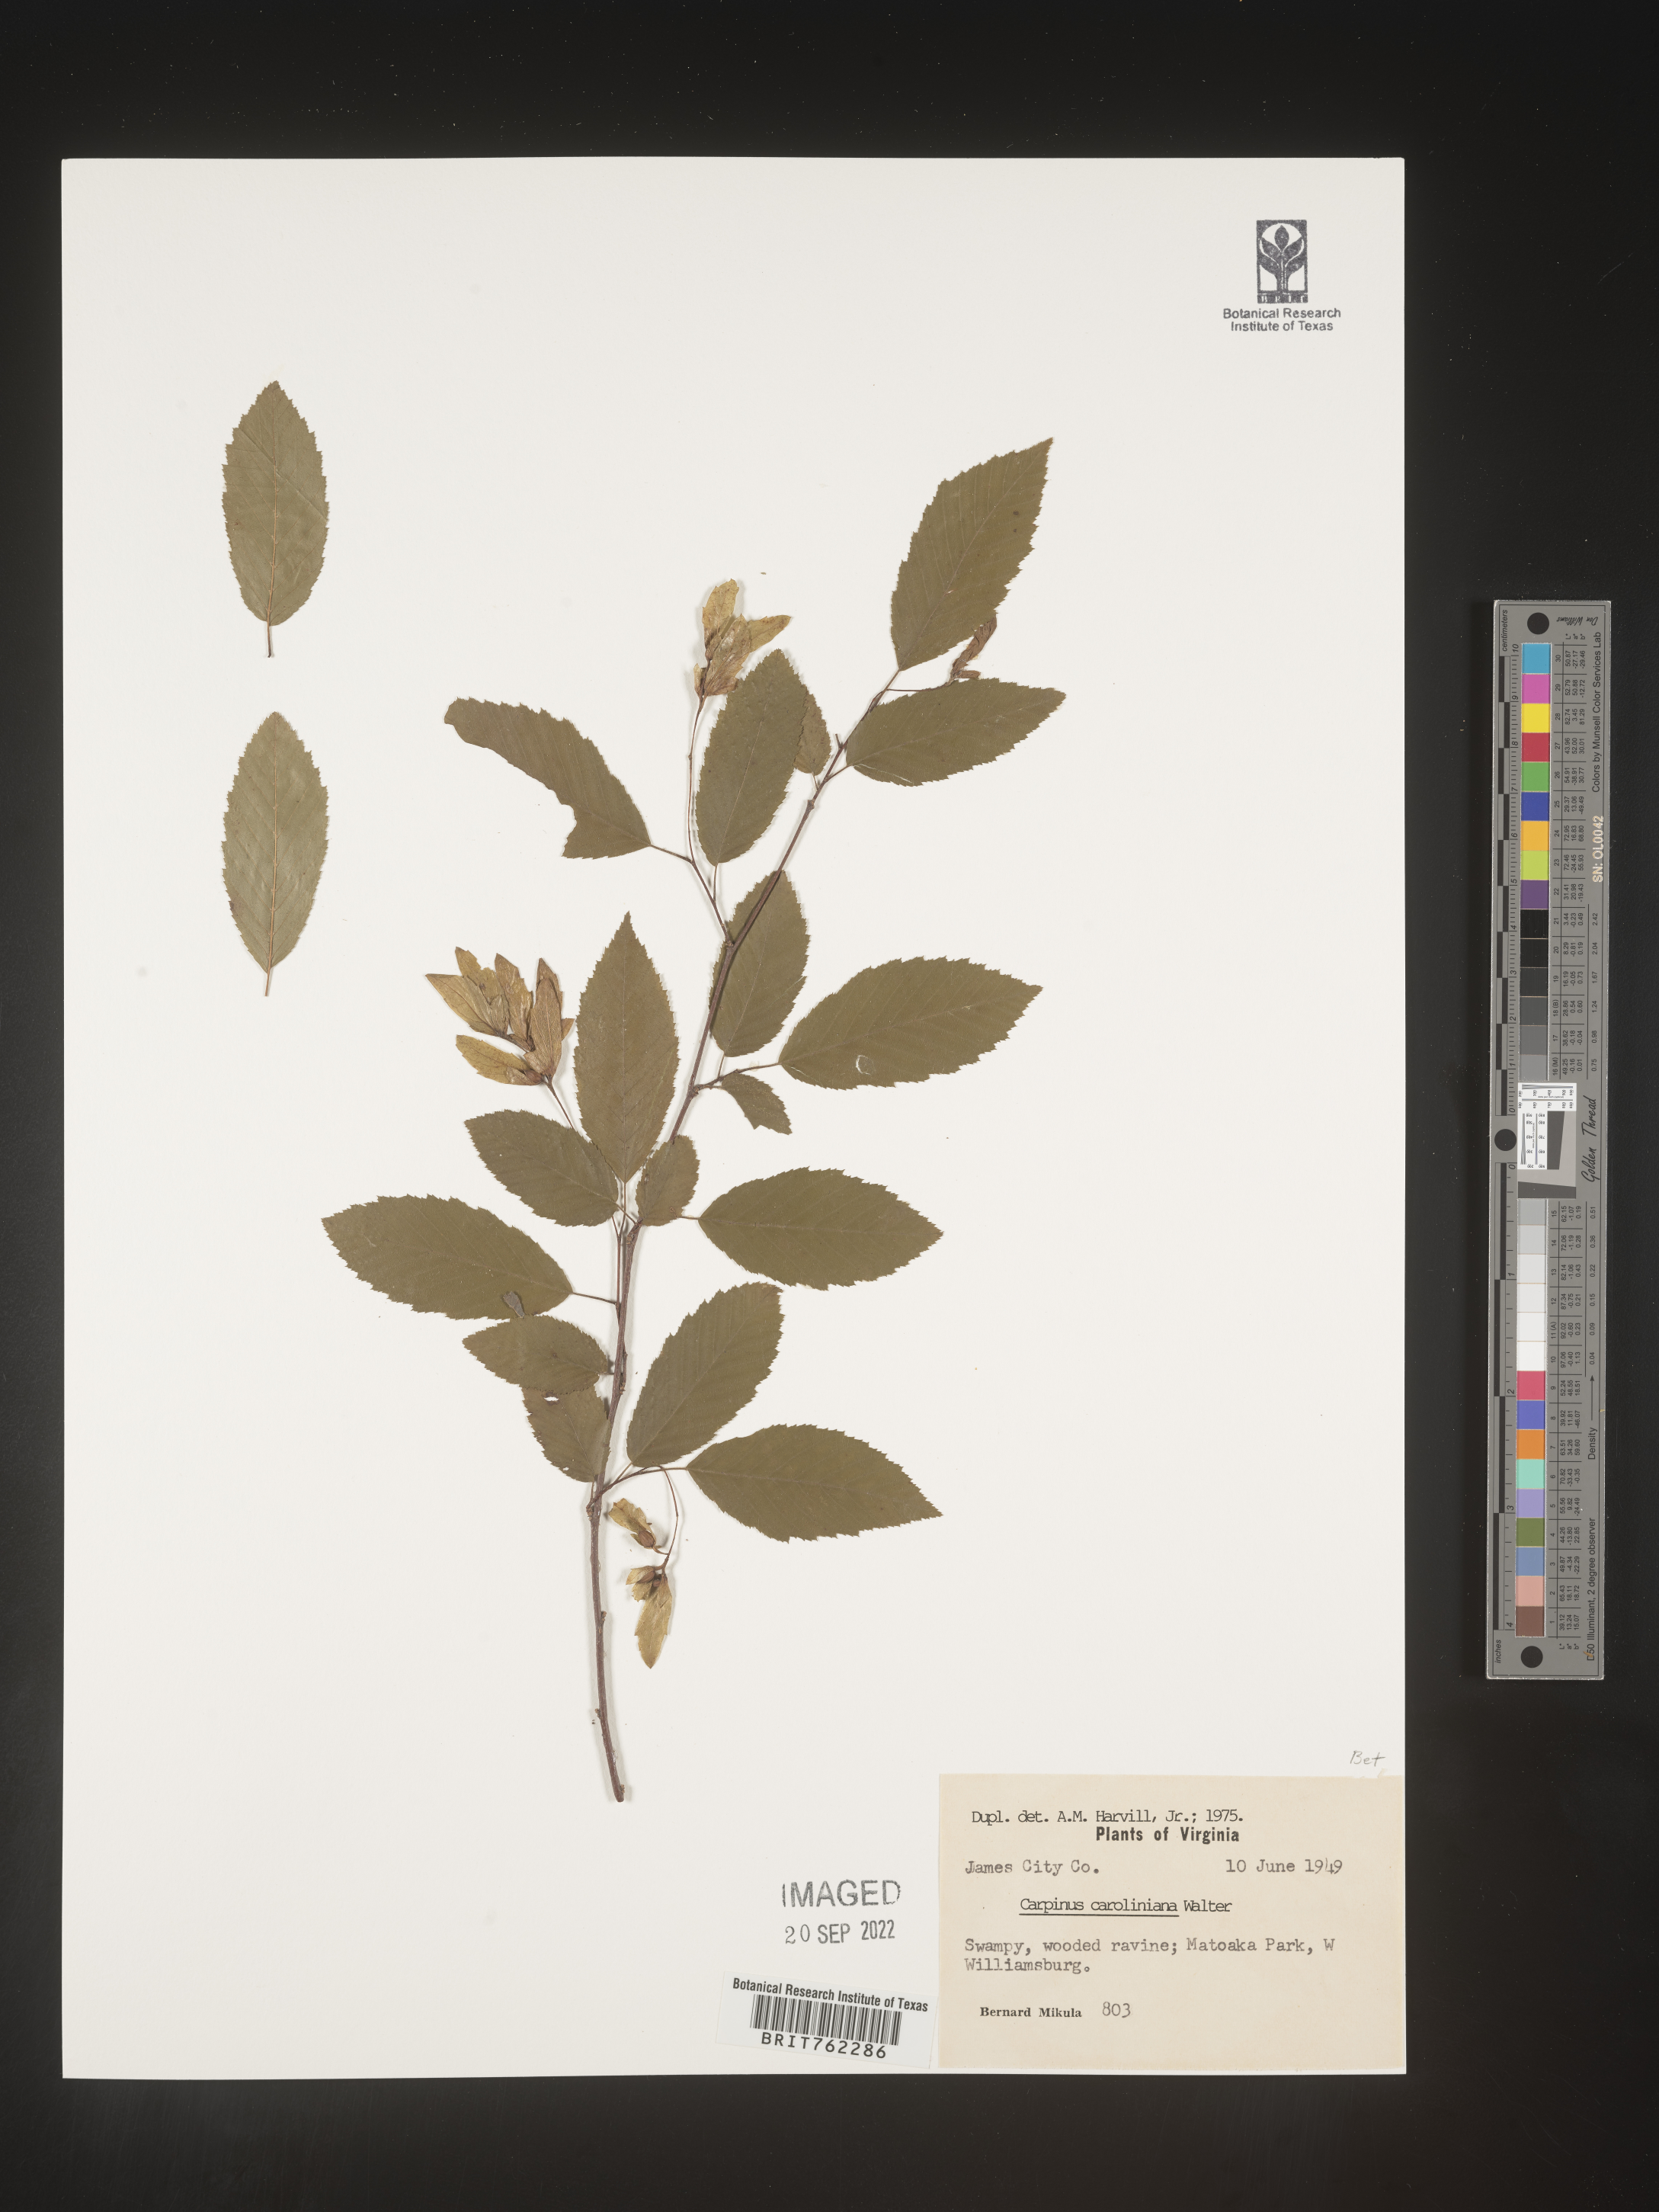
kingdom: Plantae
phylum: Tracheophyta
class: Magnoliopsida
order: Fagales
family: Betulaceae
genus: Carpinus
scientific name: Carpinus caroliniana
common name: American hornbeam
